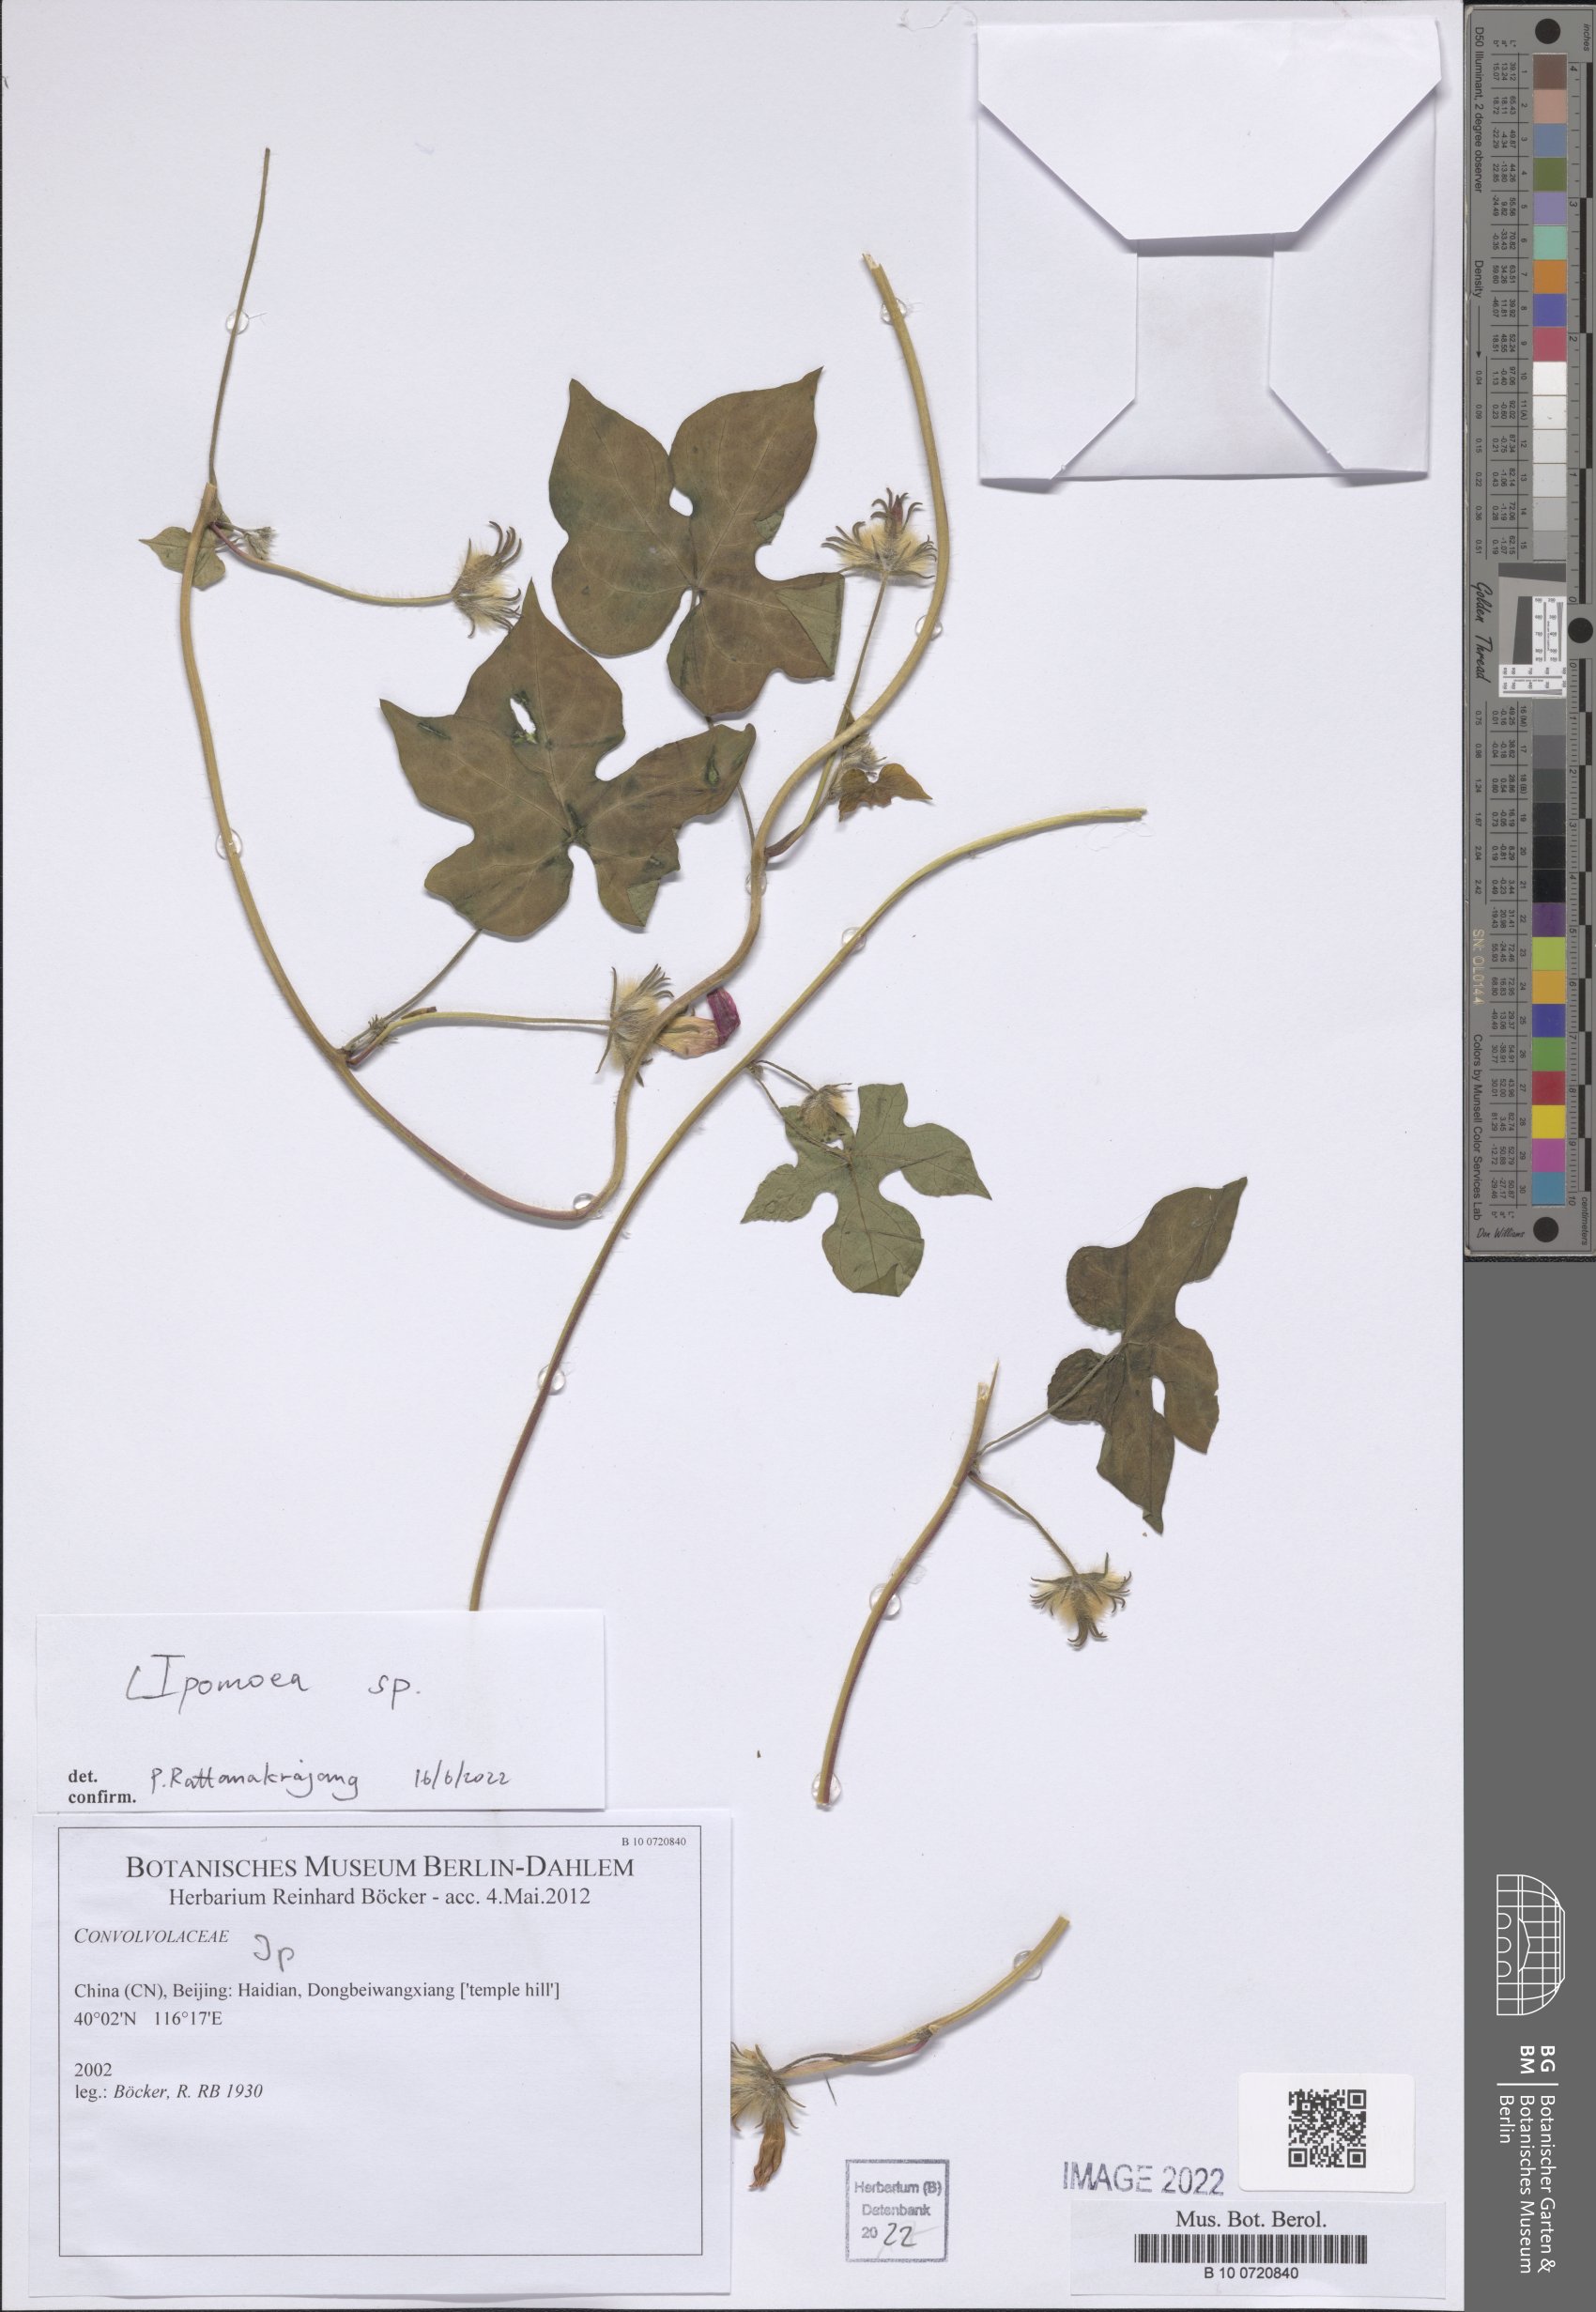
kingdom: Plantae
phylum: Tracheophyta
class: Magnoliopsida
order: Solanales
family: Convolvulaceae
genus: Ipomoea
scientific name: Ipomoea
